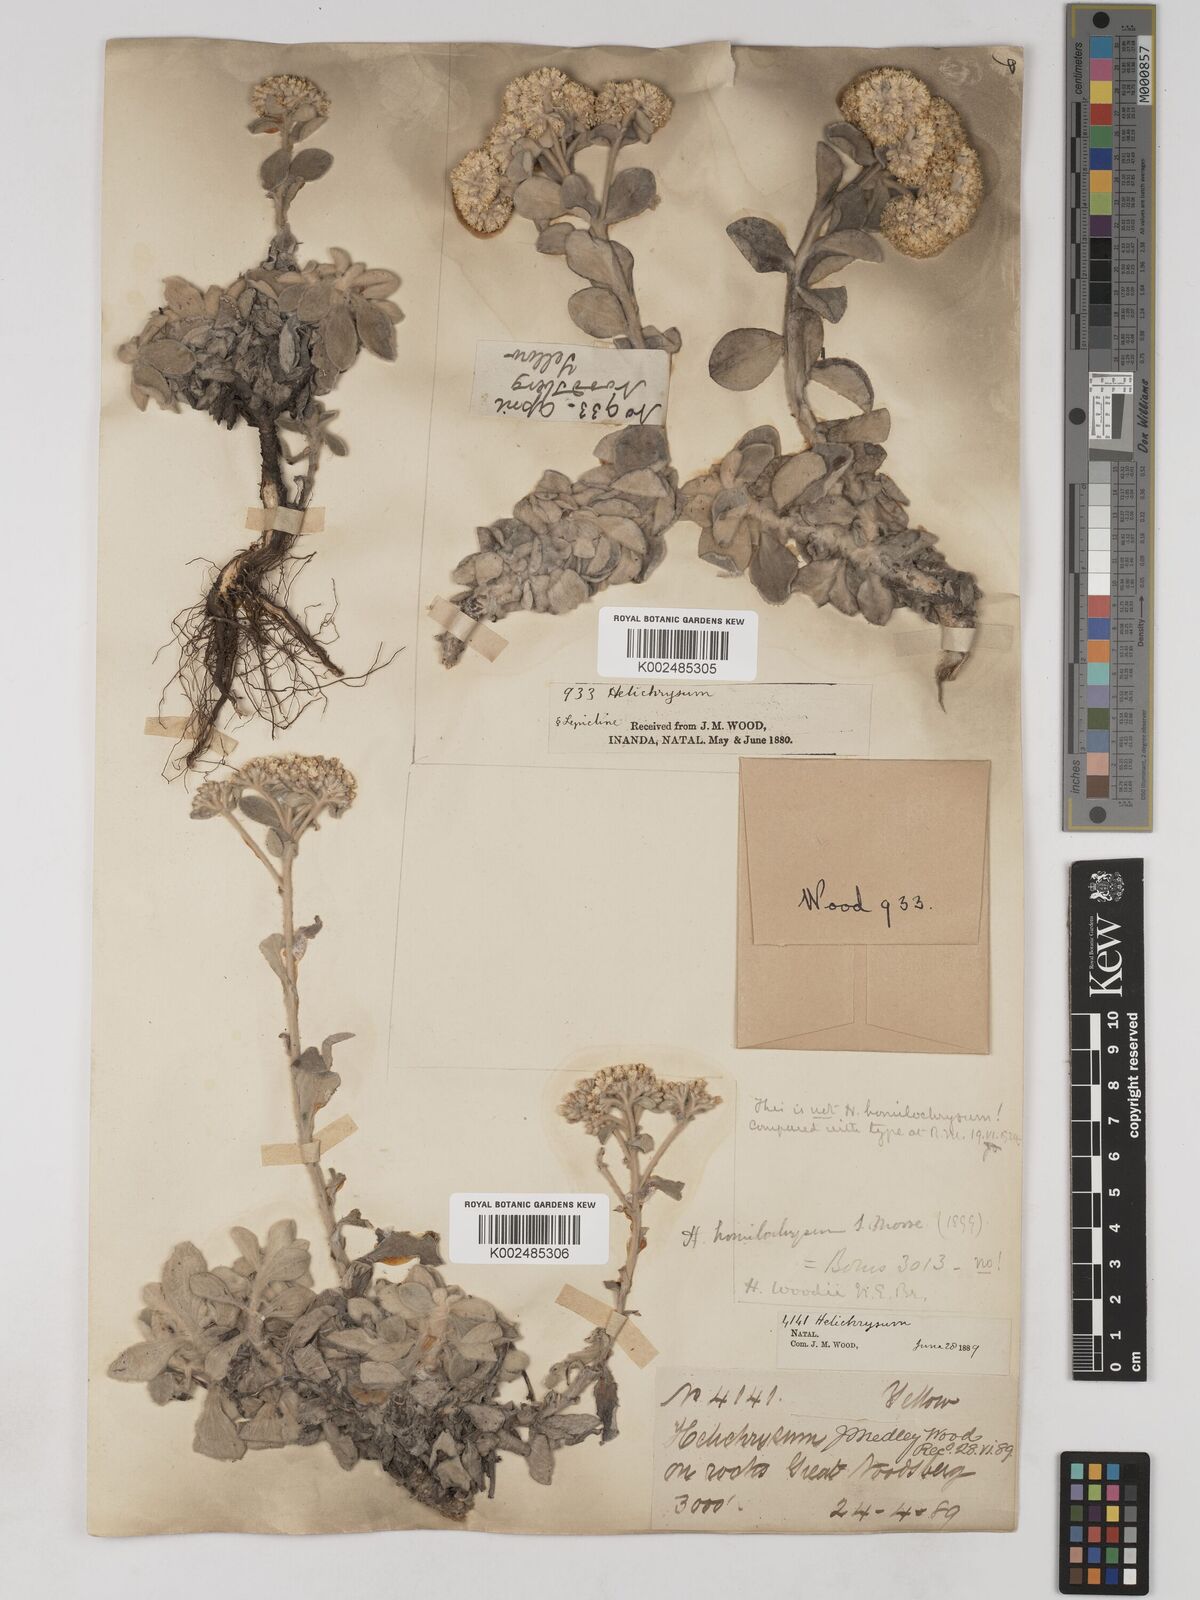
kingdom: Plantae
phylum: Tracheophyta
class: Magnoliopsida
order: Asterales
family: Asteraceae
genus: Helichrysum
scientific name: Helichrysum woodii
